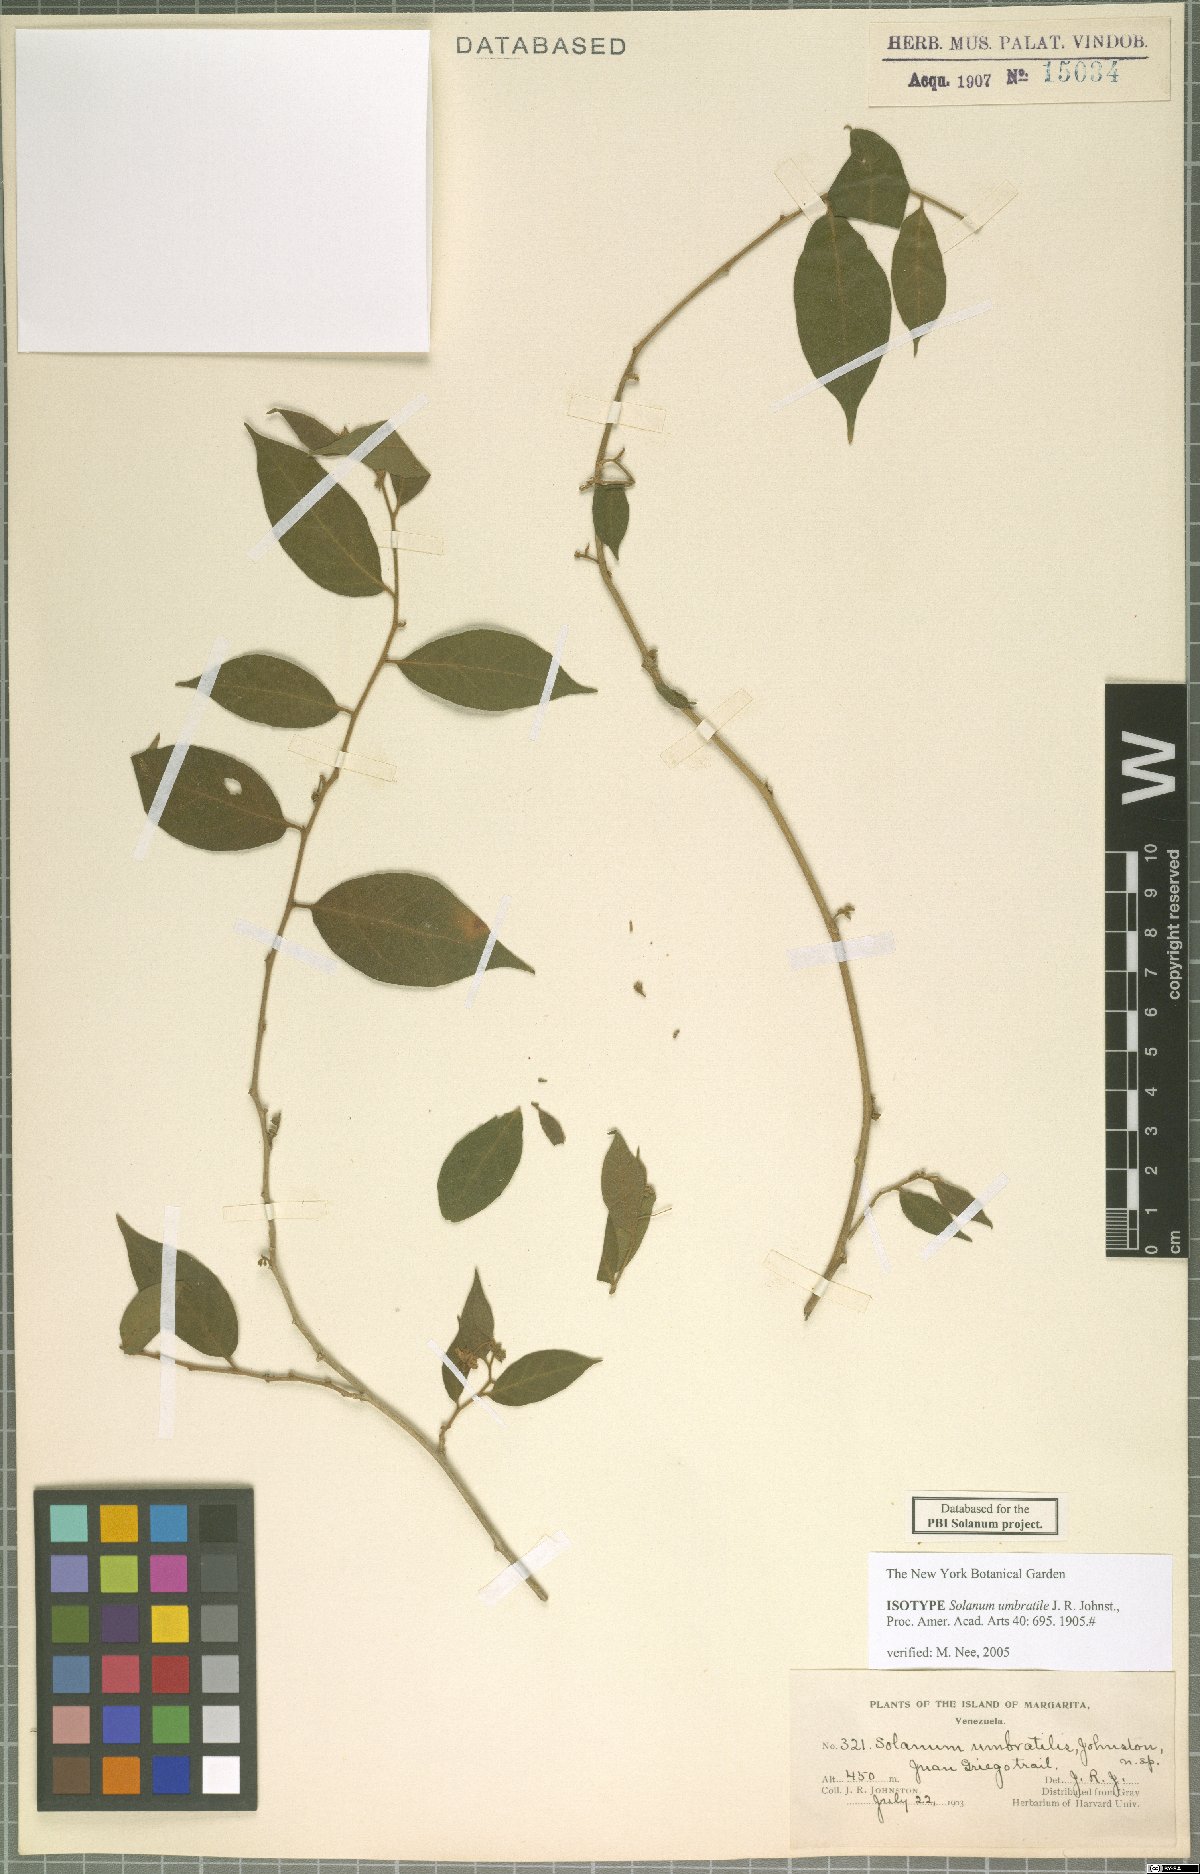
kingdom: Plantae
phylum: Tracheophyta
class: Magnoliopsida
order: Solanales
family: Solanaceae
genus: Solanum
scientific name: Solanum umbratile
